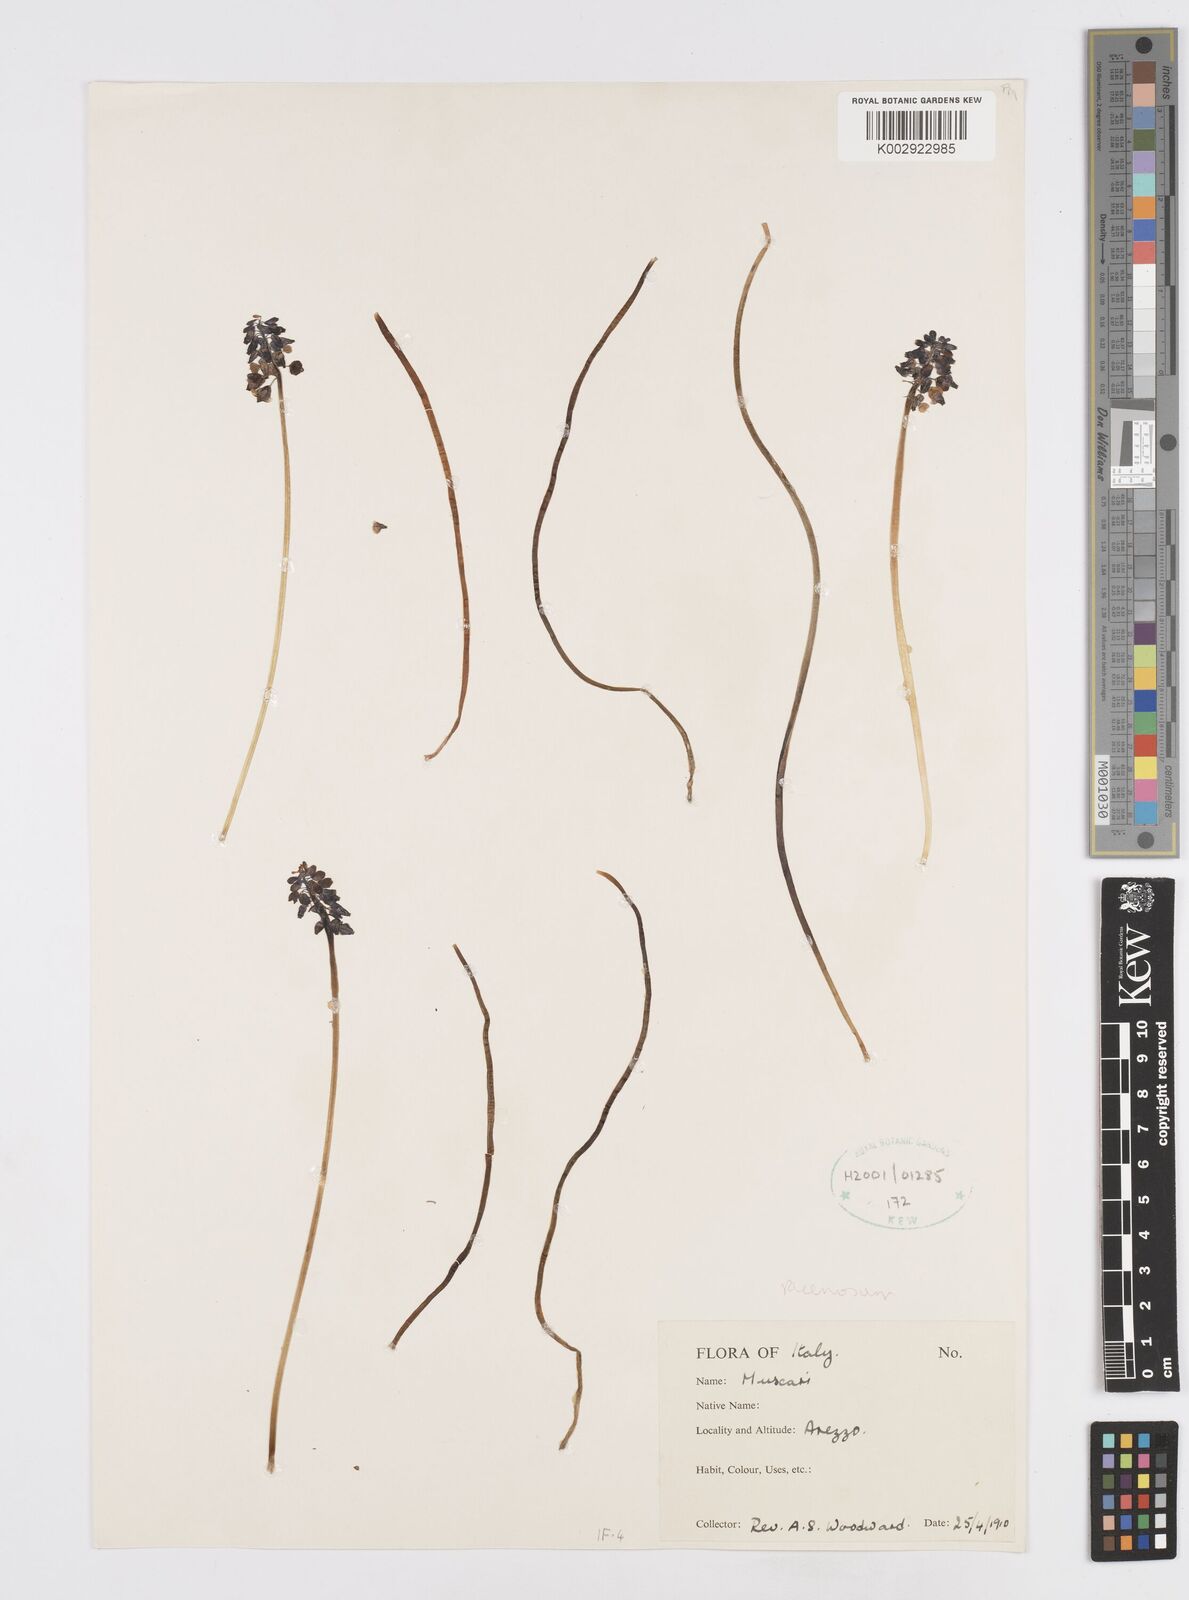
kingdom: Plantae
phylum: Tracheophyta
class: Liliopsida
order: Asparagales
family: Asparagaceae
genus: Muscarimia
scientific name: Muscarimia muscari
